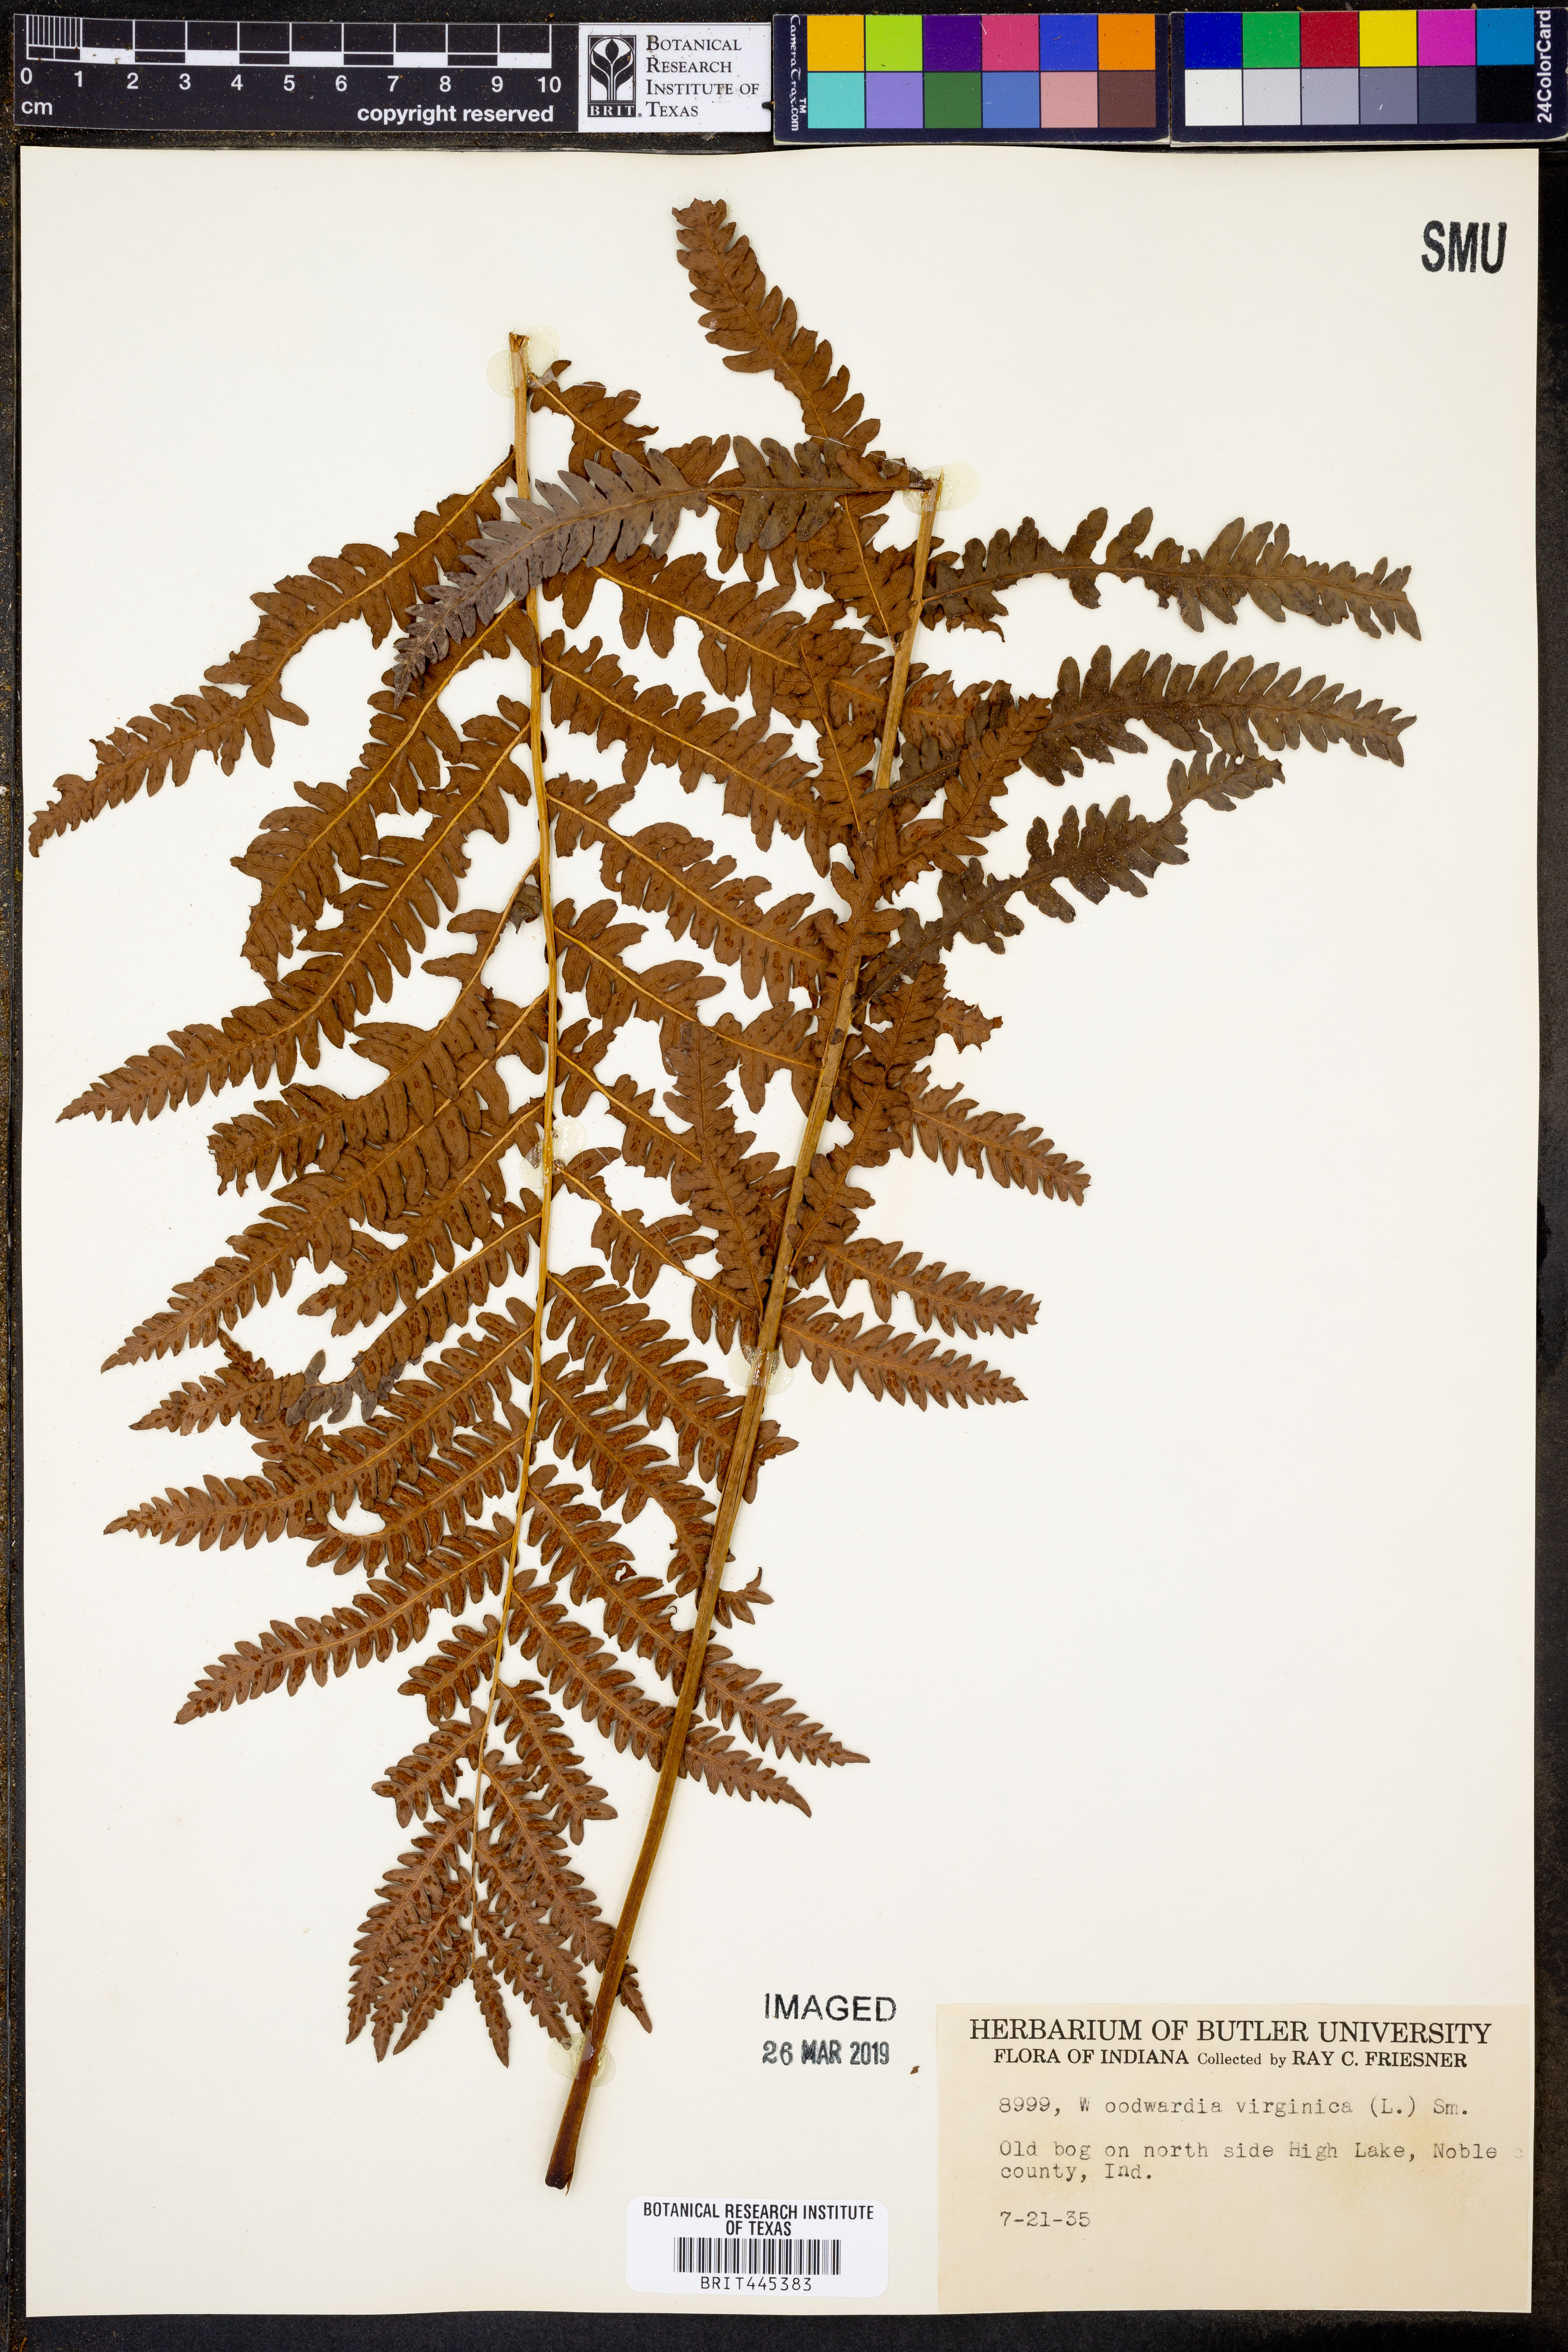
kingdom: Plantae
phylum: Tracheophyta
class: Polypodiopsida
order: Polypodiales
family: Blechnaceae
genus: Anchistea
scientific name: Anchistea virginica
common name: Virginia chain fern
